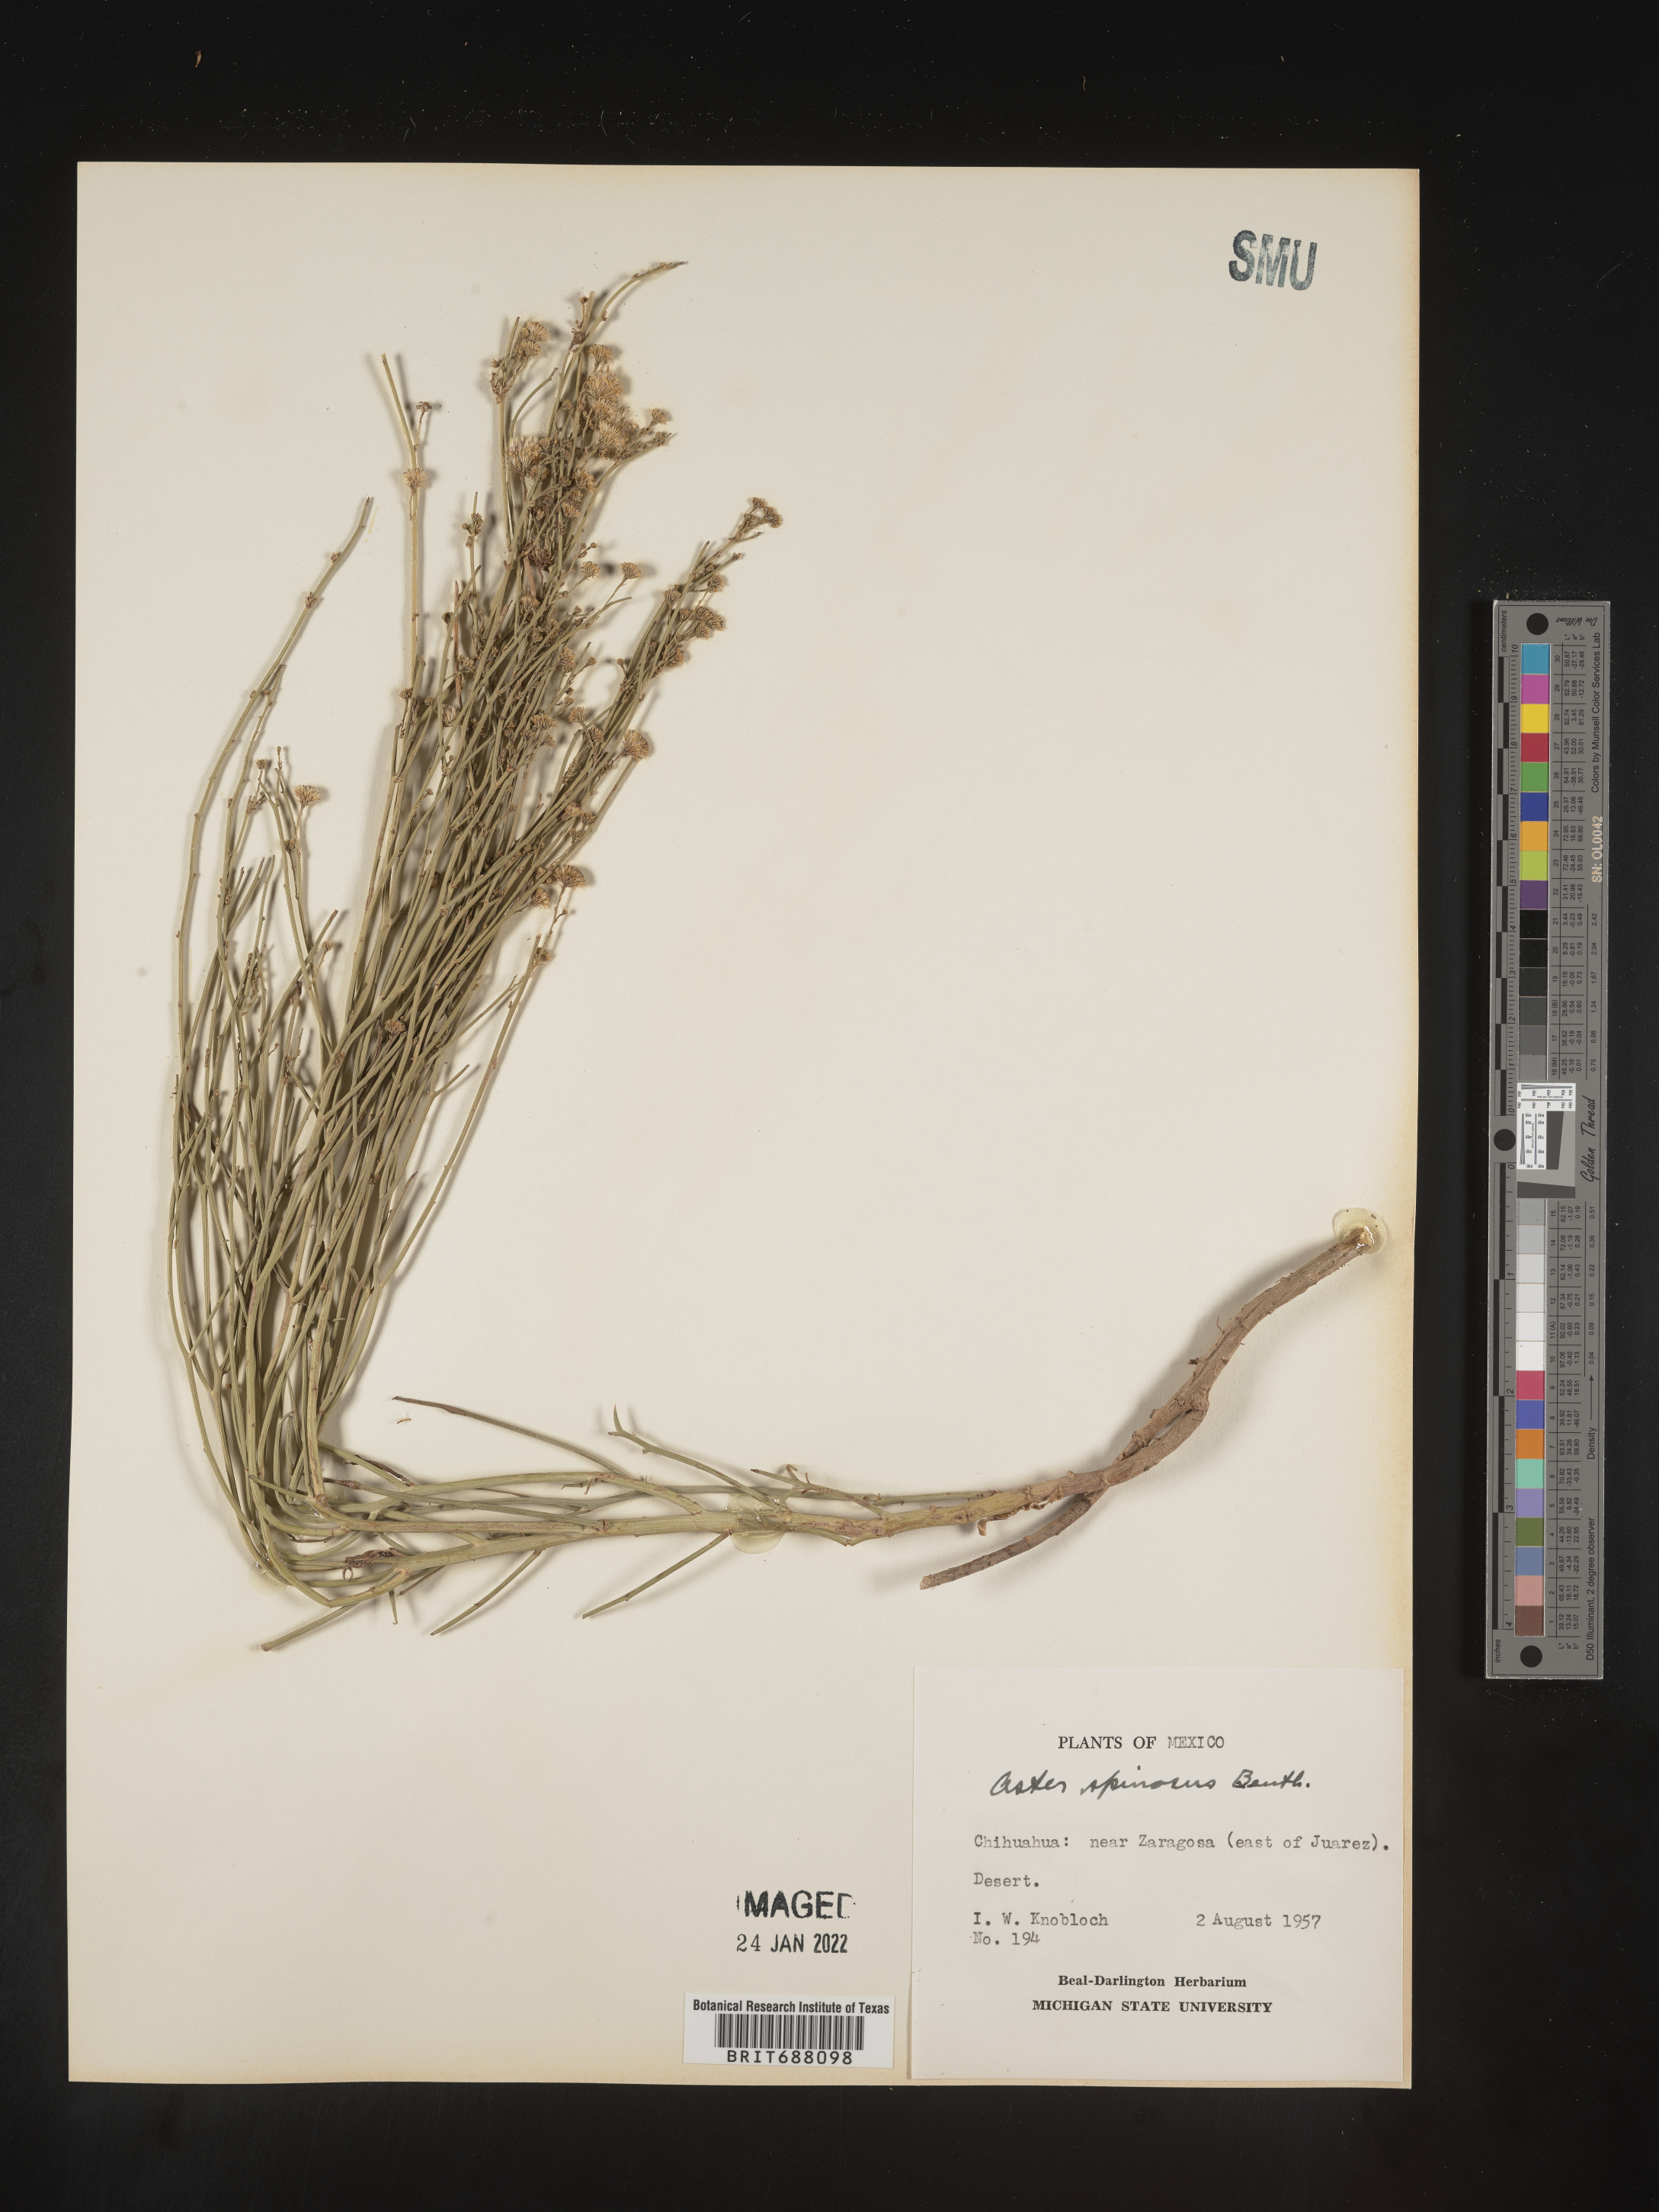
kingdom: Plantae
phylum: Tracheophyta
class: Magnoliopsida
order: Asterales
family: Asteraceae
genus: Chloracantha
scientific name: Chloracantha
